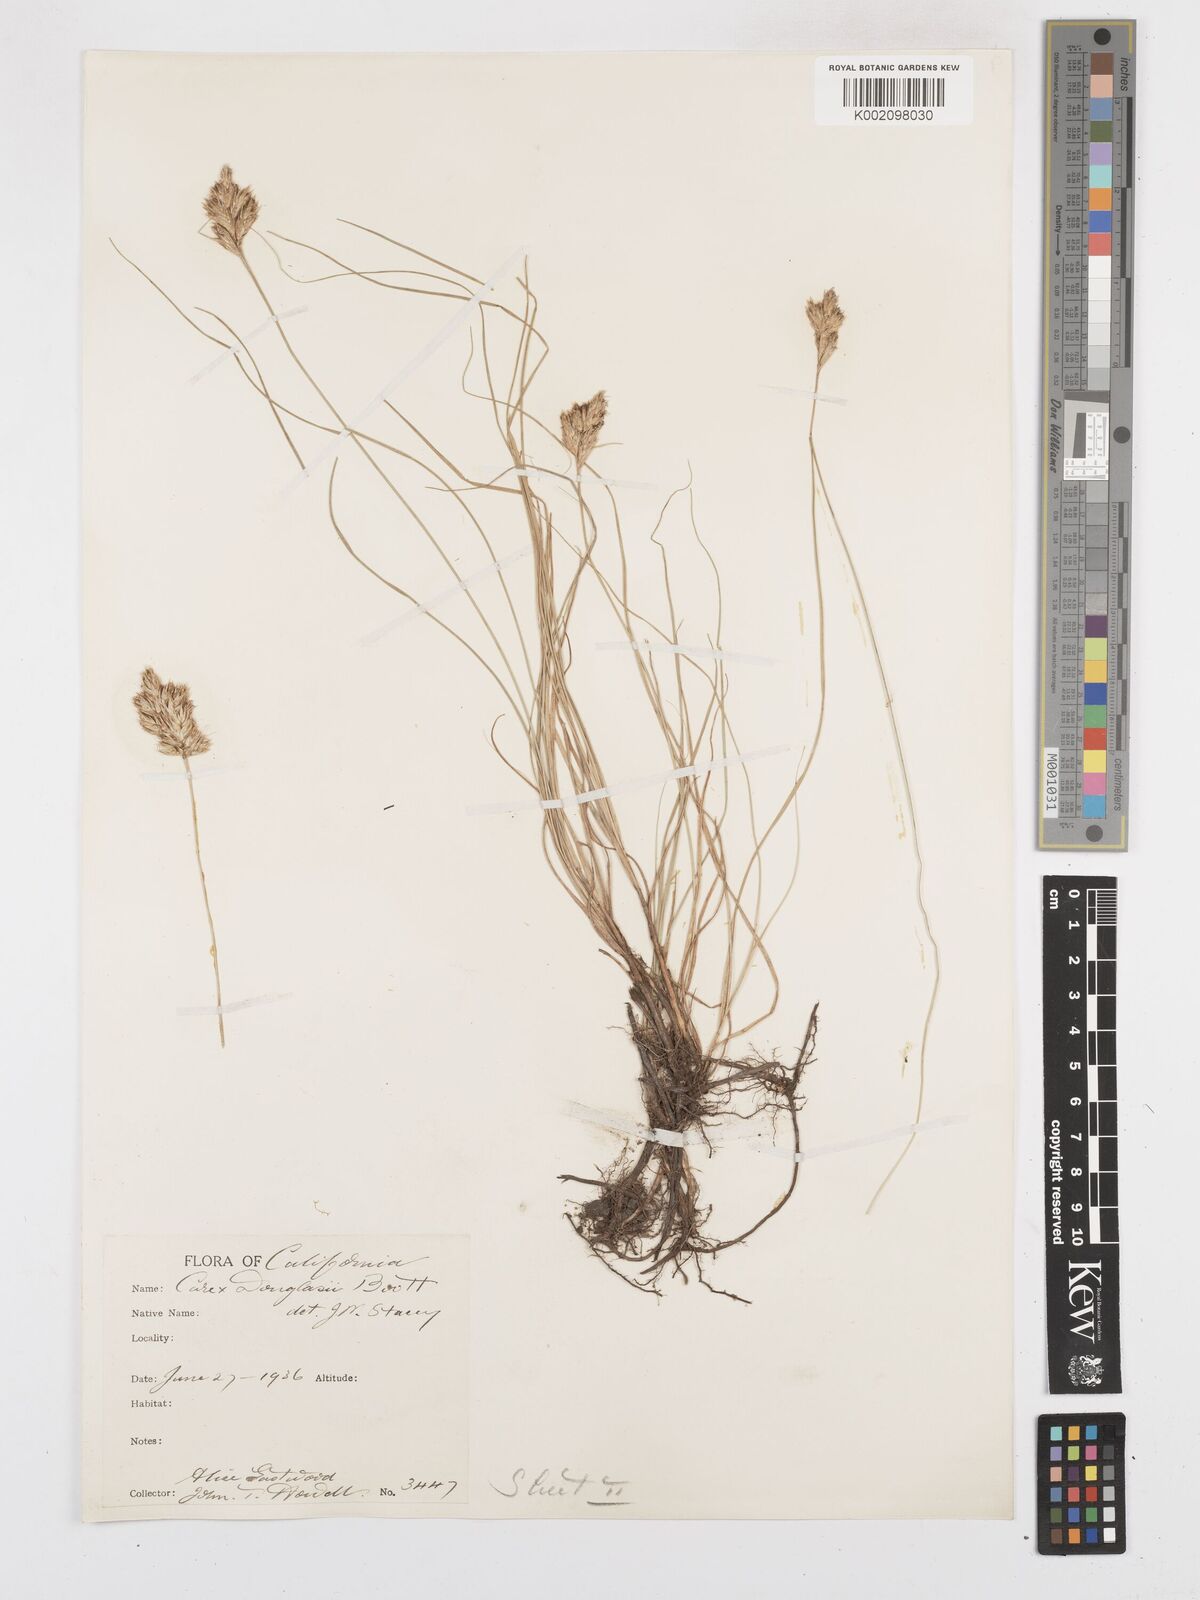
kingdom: Plantae
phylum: Tracheophyta
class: Liliopsida
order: Poales
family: Cyperaceae
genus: Carex
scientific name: Carex douglasii
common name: Douglas' sedge
